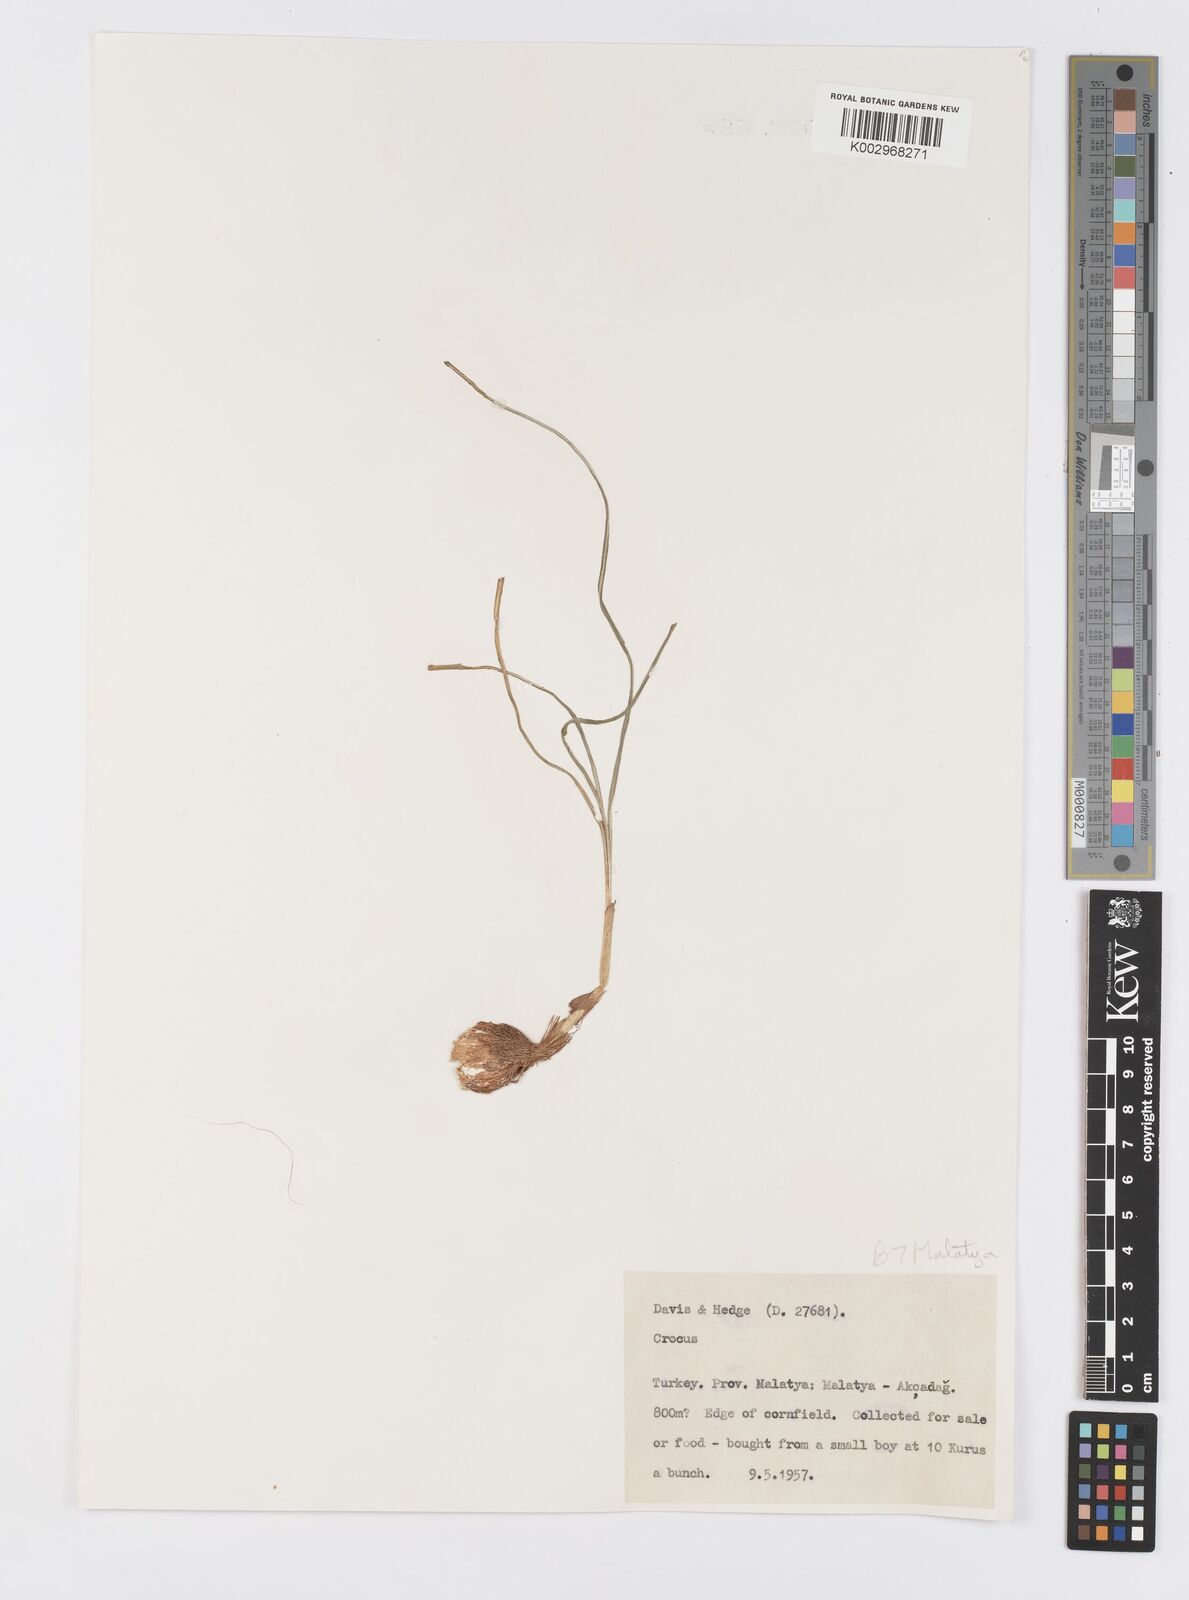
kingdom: Plantae
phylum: Tracheophyta
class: Liliopsida
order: Asparagales
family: Iridaceae
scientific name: Iridaceae
